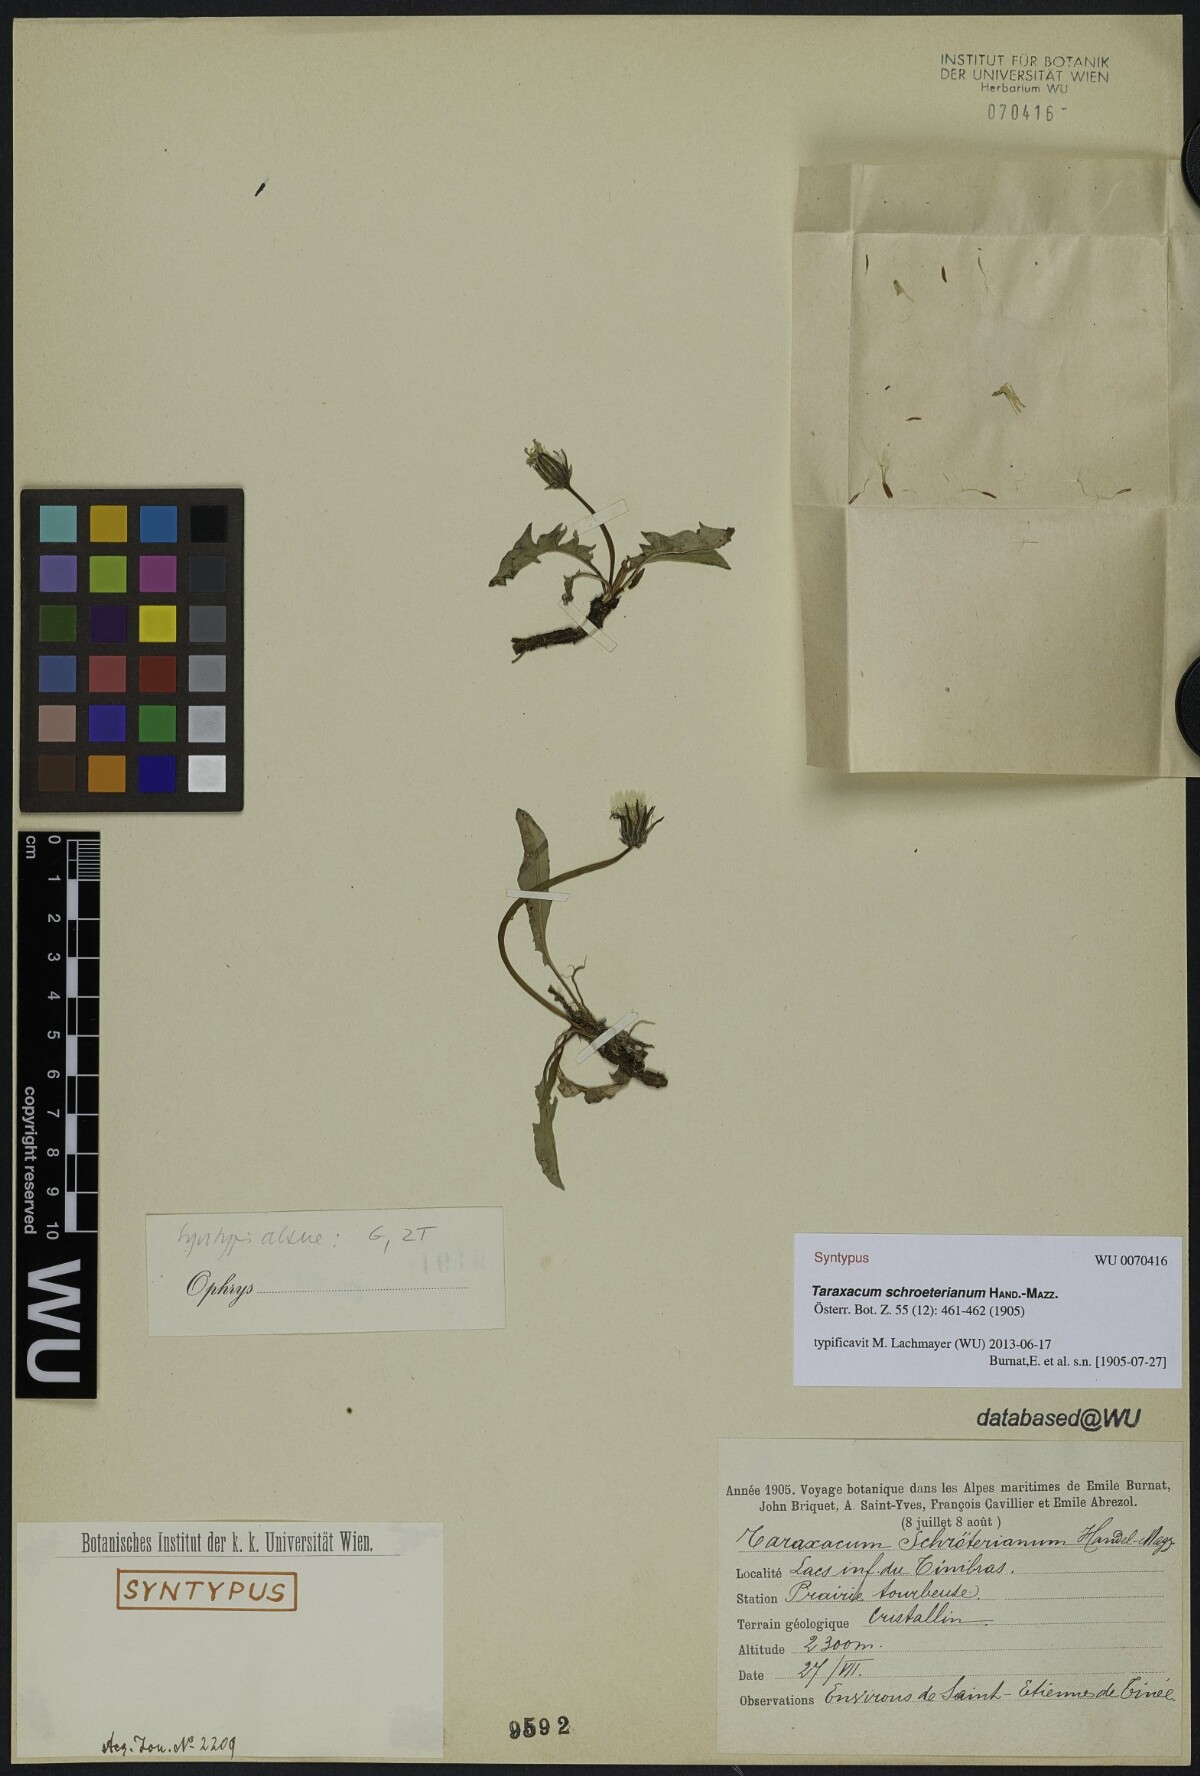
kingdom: Plantae
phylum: Tracheophyta
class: Magnoliopsida
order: Asterales
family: Asteraceae
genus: Taraxacum
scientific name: Taraxacum schroeterianum
